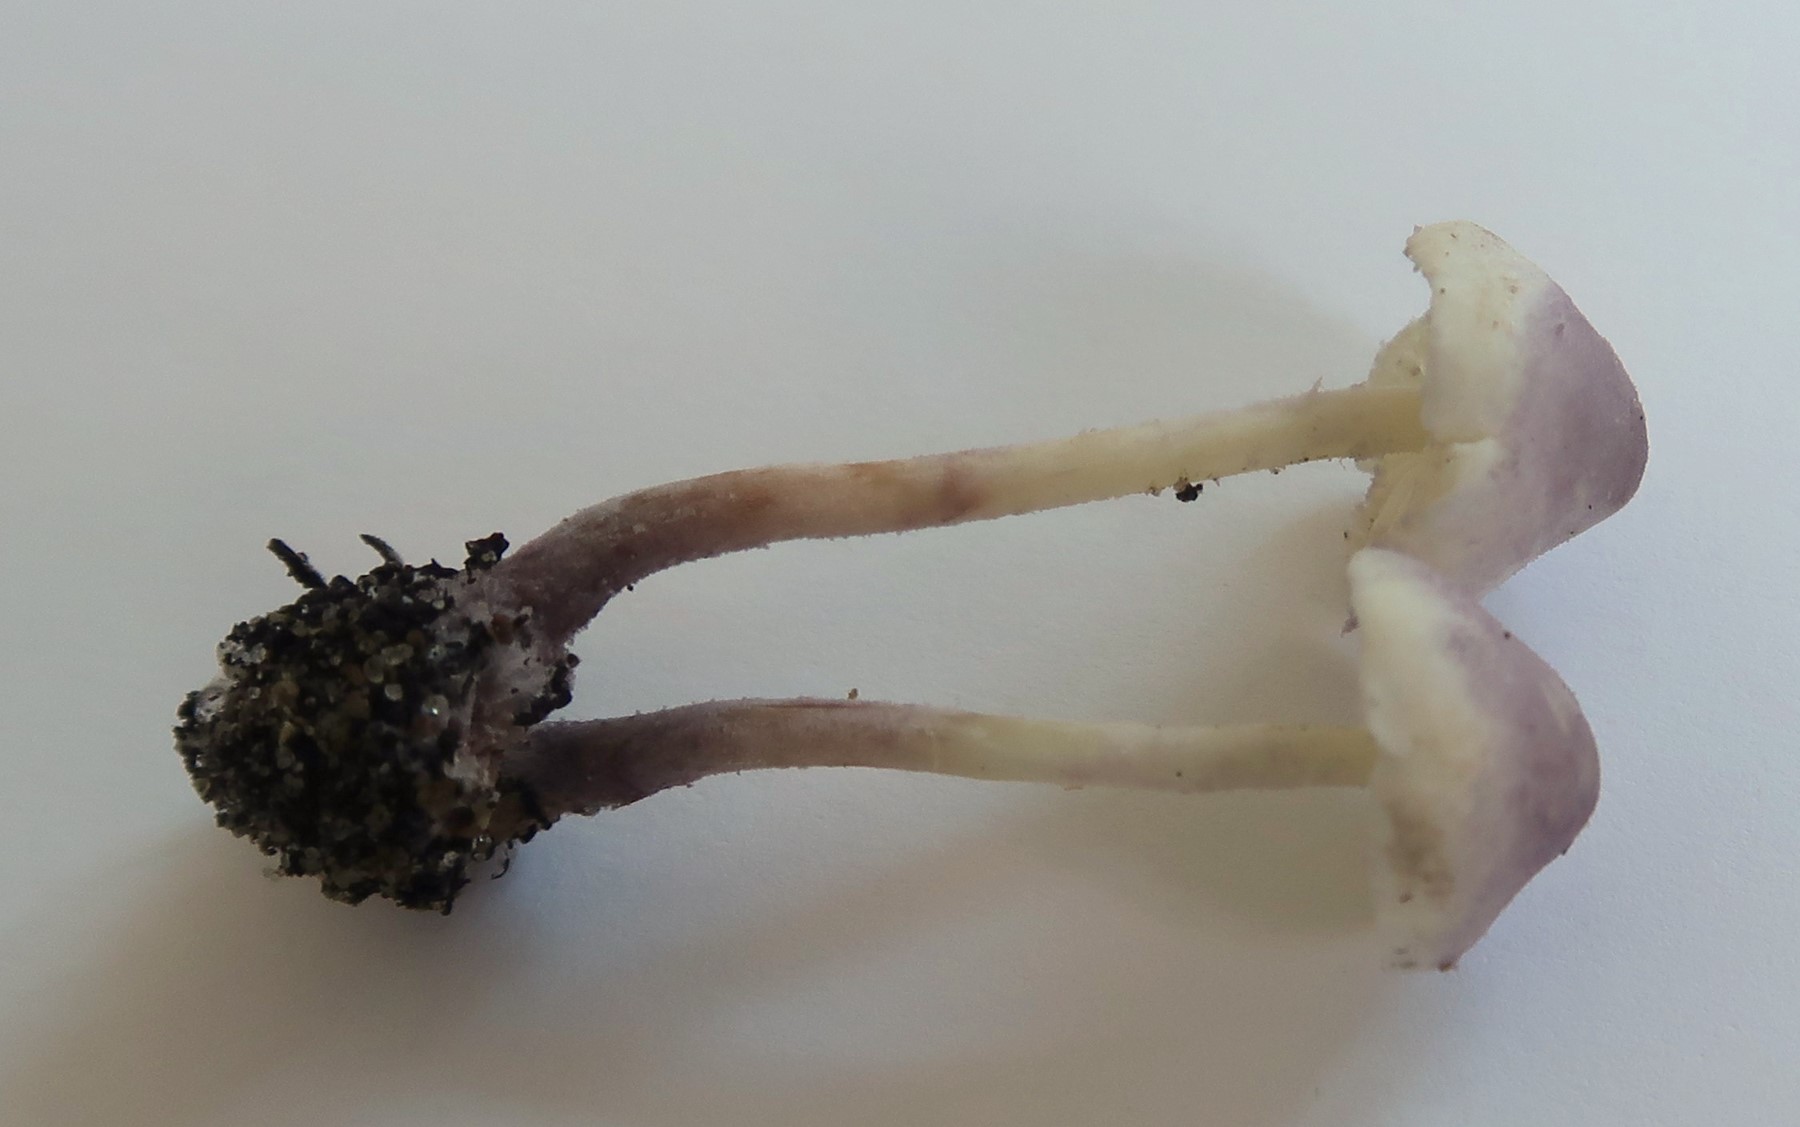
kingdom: Fungi
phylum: Basidiomycota
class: Agaricomycetes
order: Agaricales
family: Agaricaceae
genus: Cystolepiota
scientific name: Cystolepiota bucknallii
